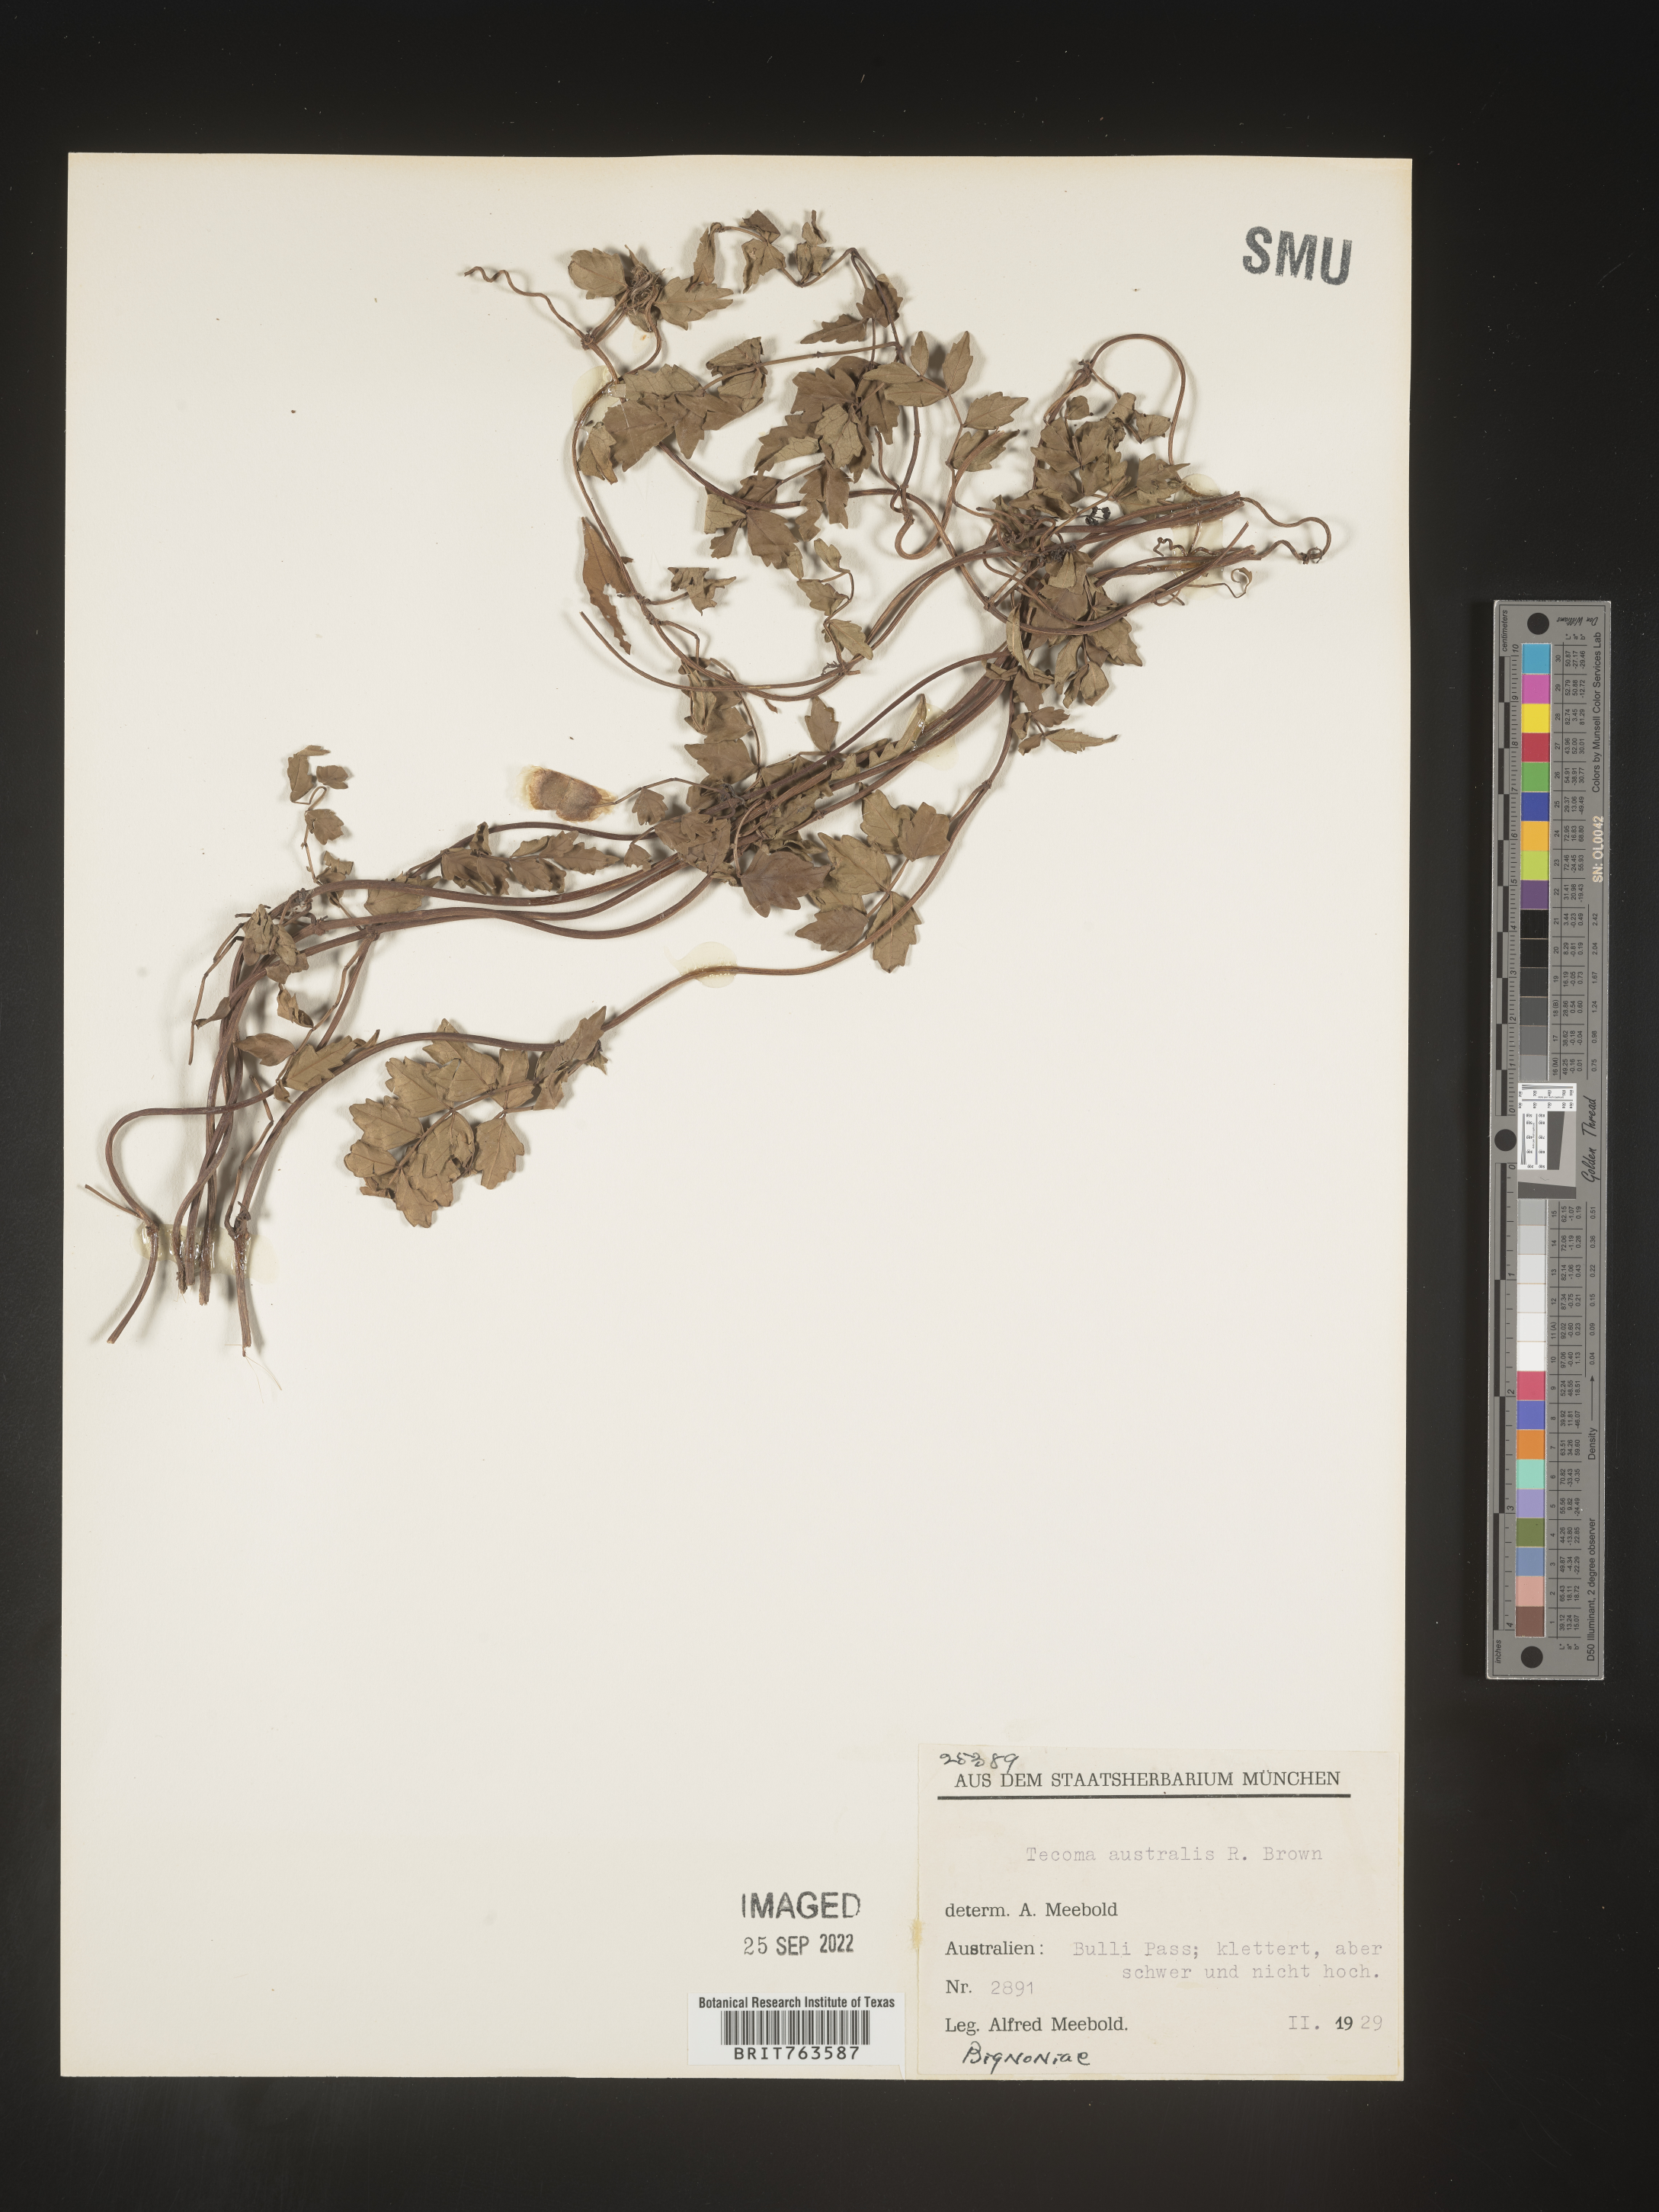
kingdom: Plantae
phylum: Tracheophyta
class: Magnoliopsida
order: Lamiales
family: Bignoniaceae
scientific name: Bignoniaceae
